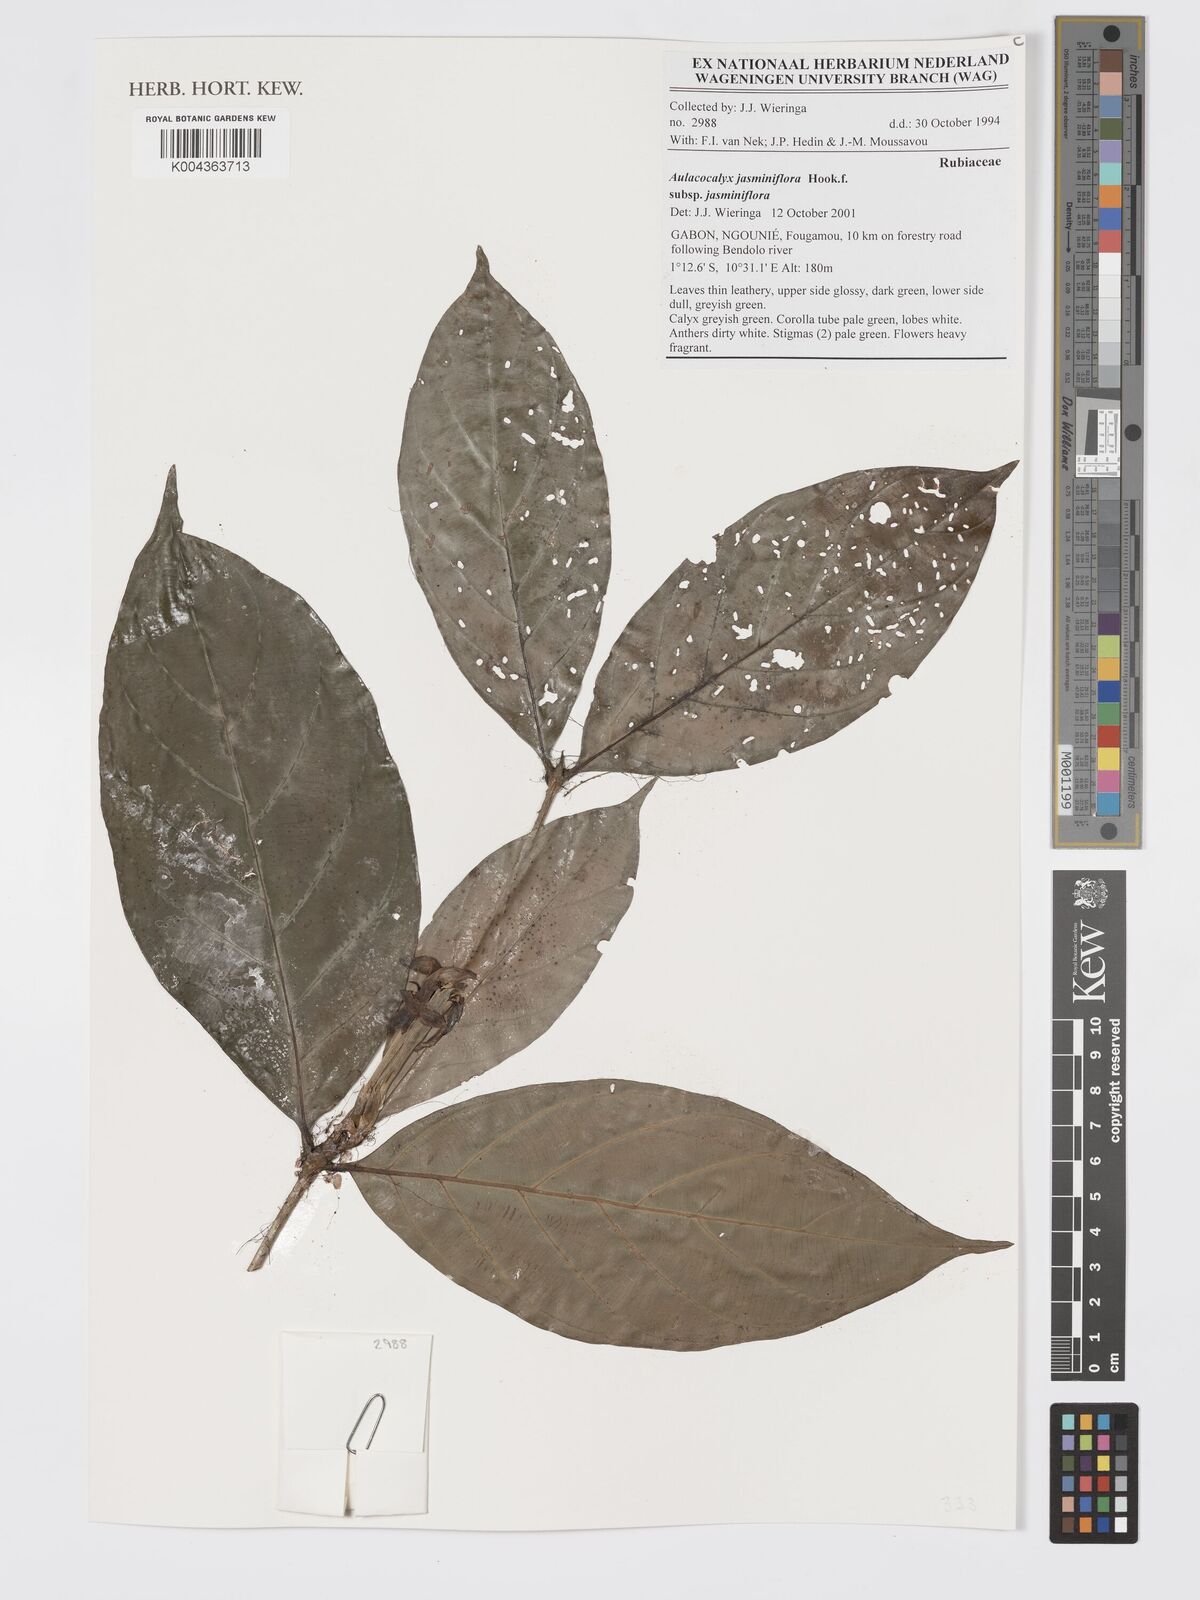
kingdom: Plantae
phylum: Tracheophyta
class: Magnoliopsida
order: Gentianales
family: Rubiaceae
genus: Aulacocalyx
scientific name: Aulacocalyx jasminiflora
